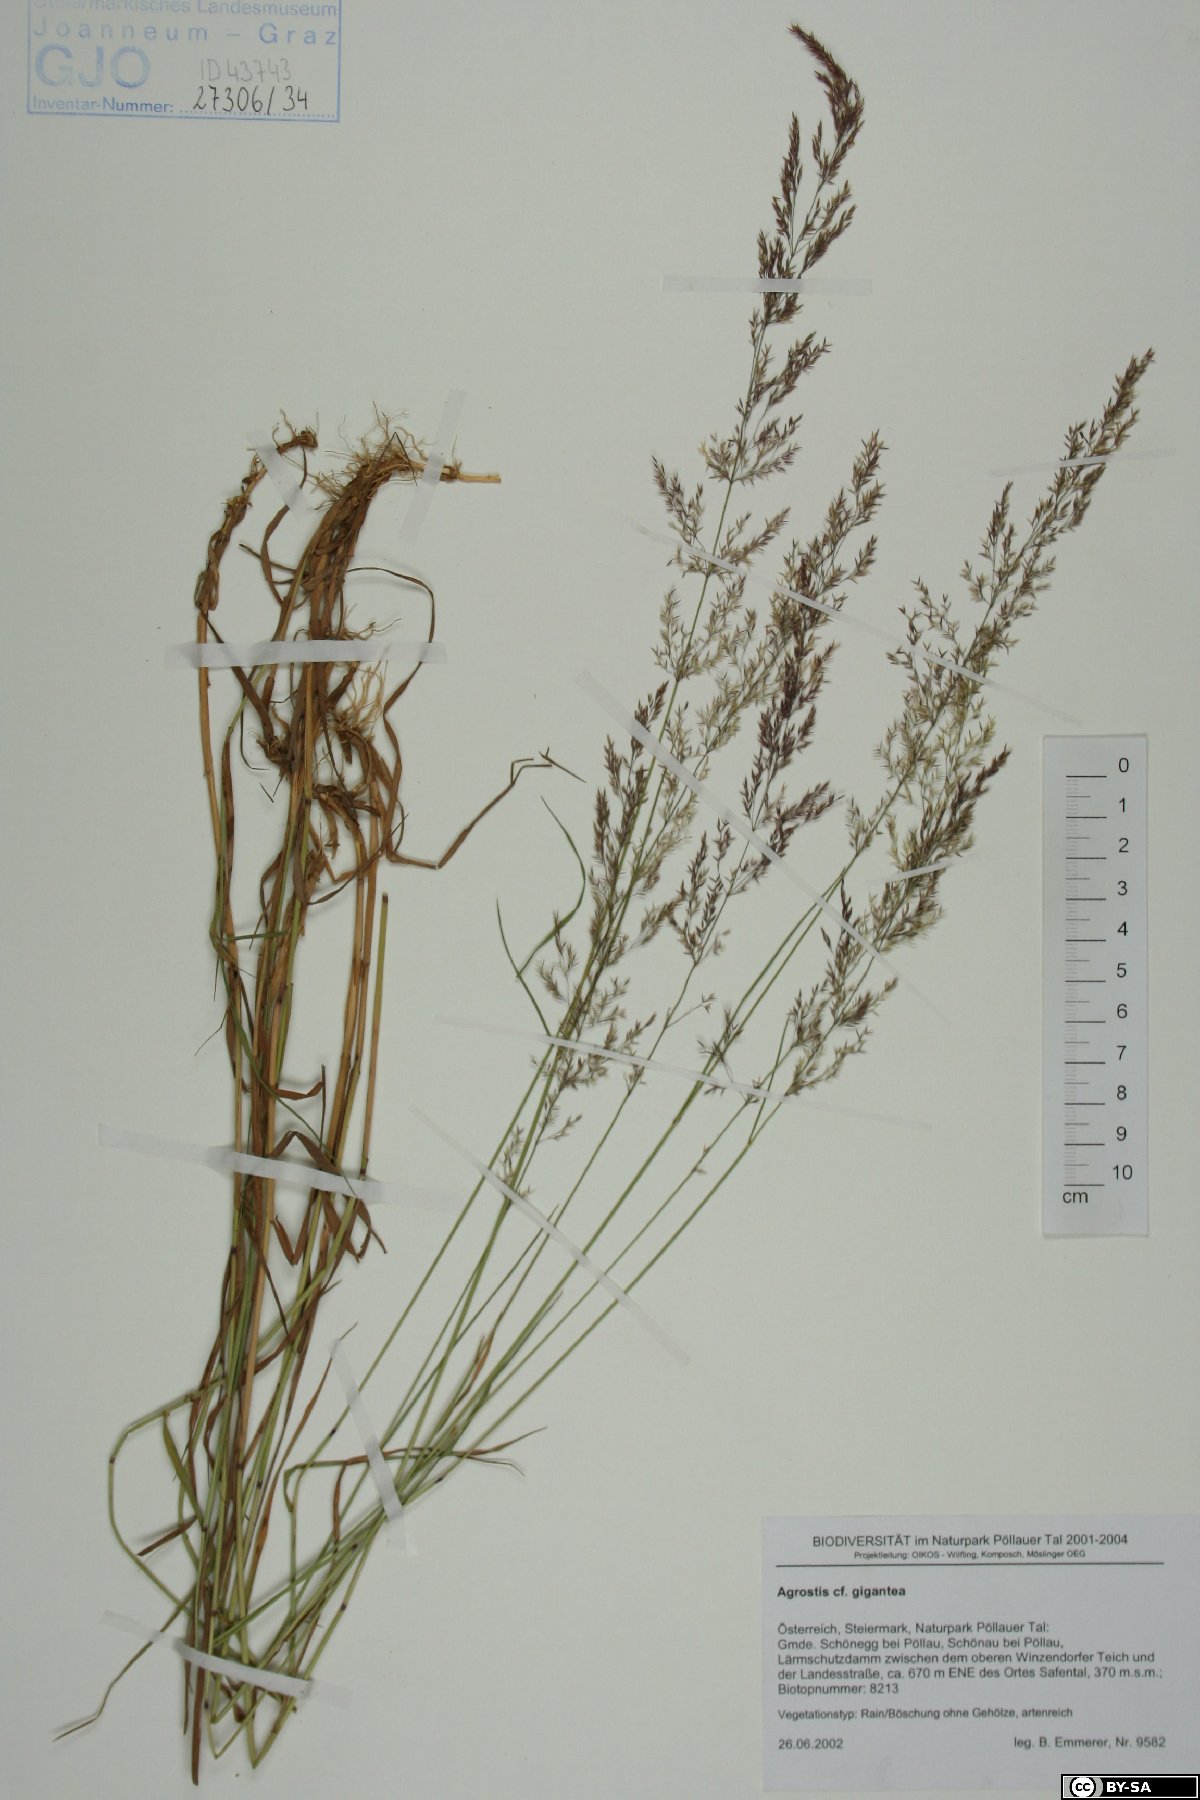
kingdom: Plantae
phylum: Tracheophyta
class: Liliopsida
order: Poales
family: Poaceae
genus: Agrostis
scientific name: Agrostis gigantea
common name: Black bent
